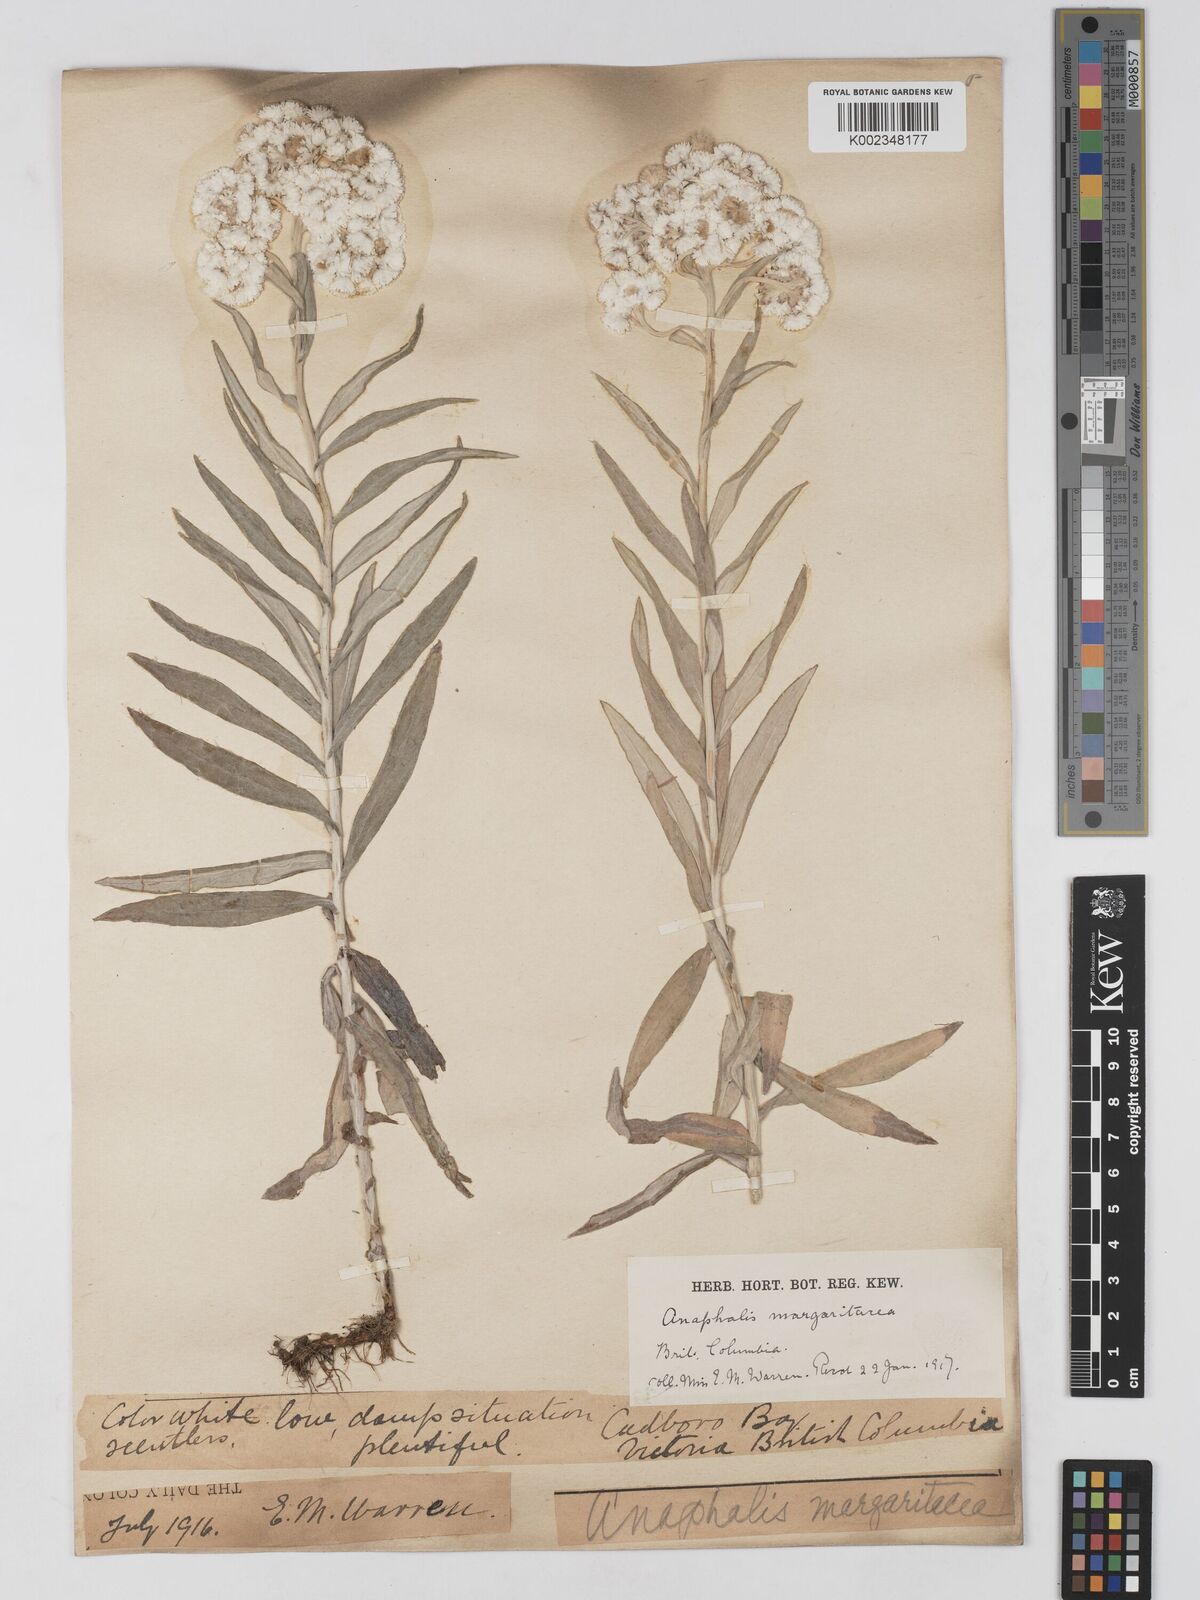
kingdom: Plantae
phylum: Tracheophyta
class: Magnoliopsida
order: Asterales
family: Asteraceae
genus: Anaphalis
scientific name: Anaphalis margaritacea
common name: Pearly everlasting
